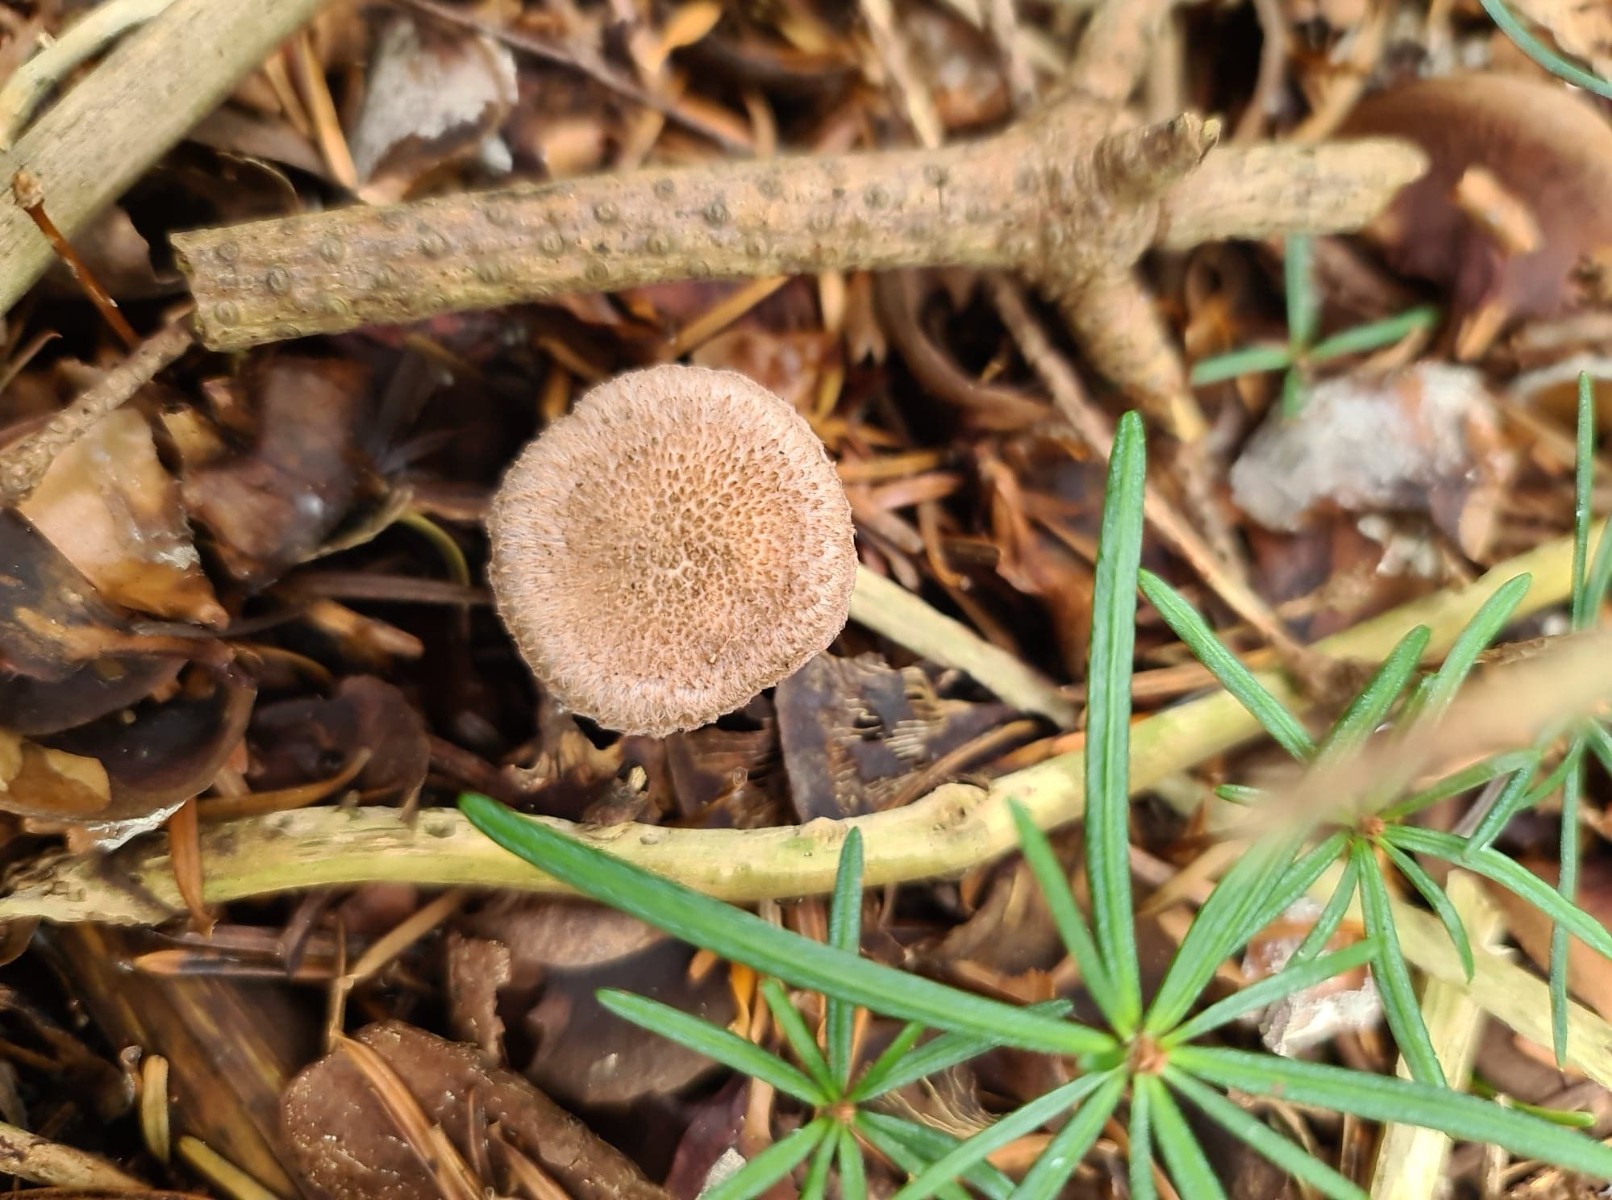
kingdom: Fungi
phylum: Basidiomycota
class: Agaricomycetes
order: Agaricales
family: Inocybaceae
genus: Inocybe
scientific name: Inocybe cincinnata
